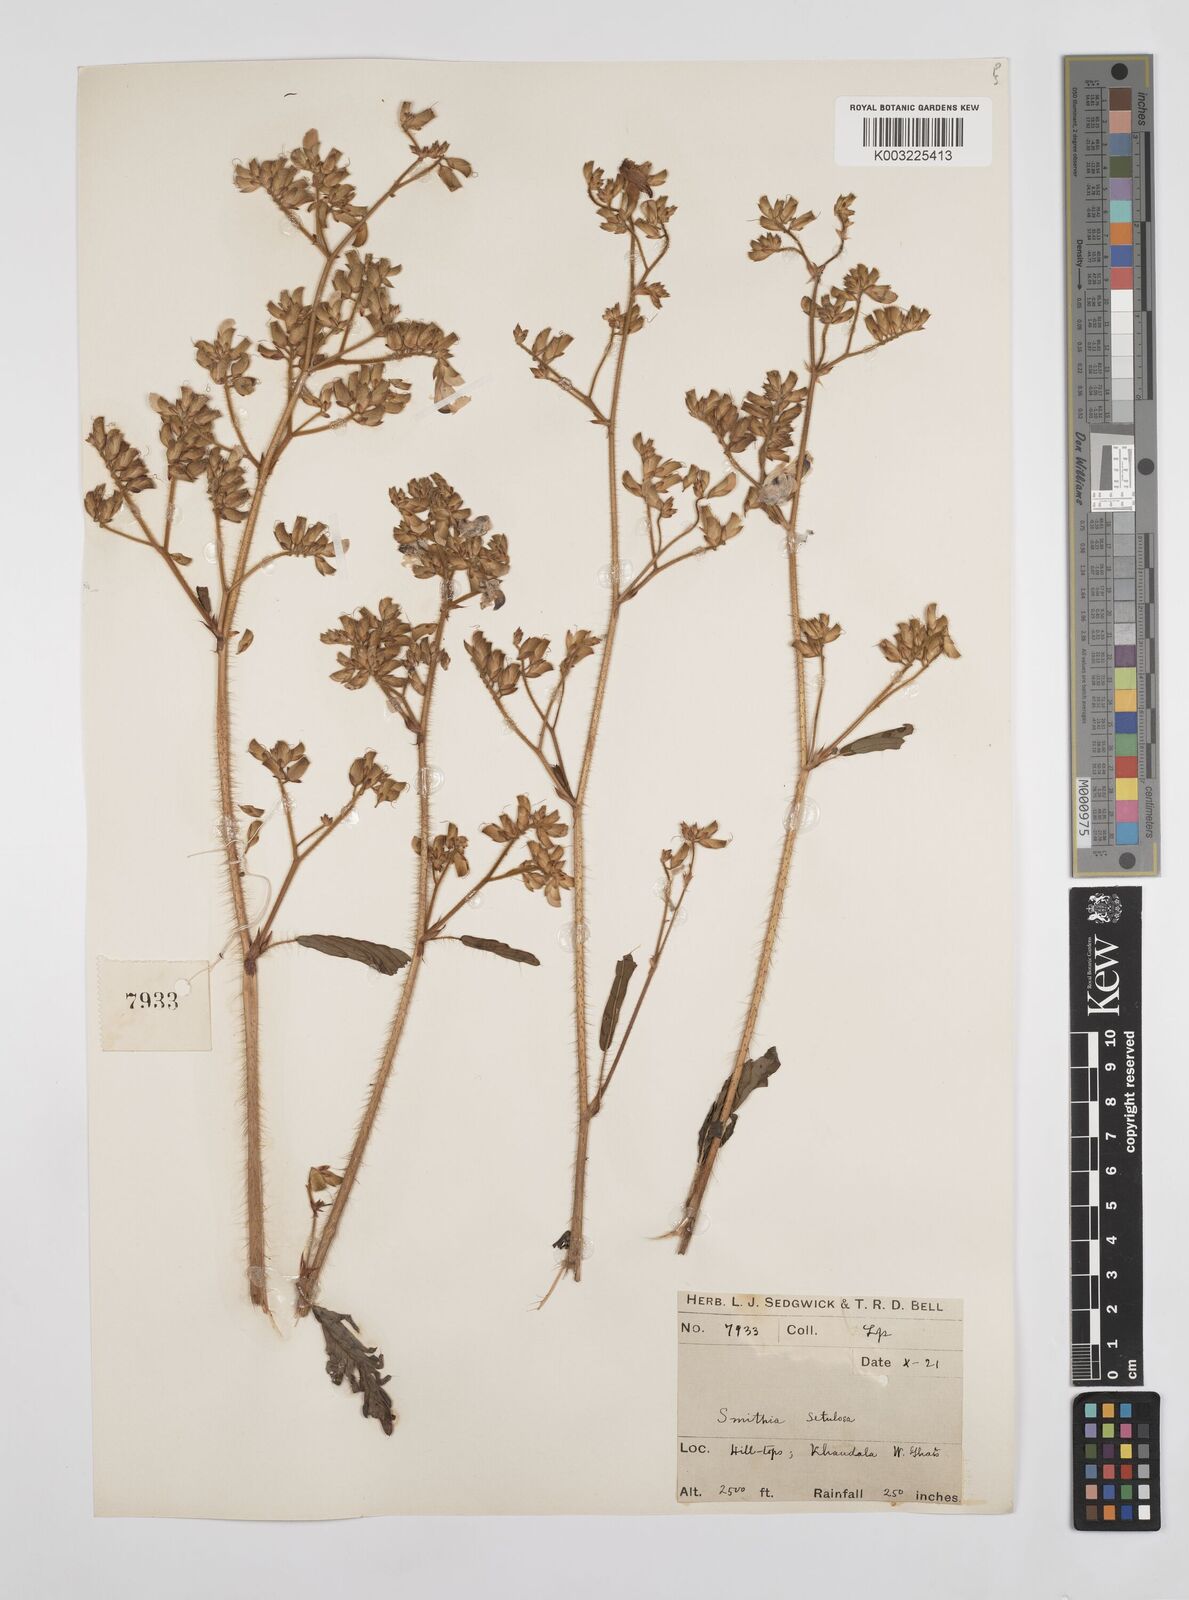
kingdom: Plantae
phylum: Tracheophyta
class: Magnoliopsida
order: Fabales
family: Fabaceae
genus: Smithia
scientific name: Smithia setulosa
